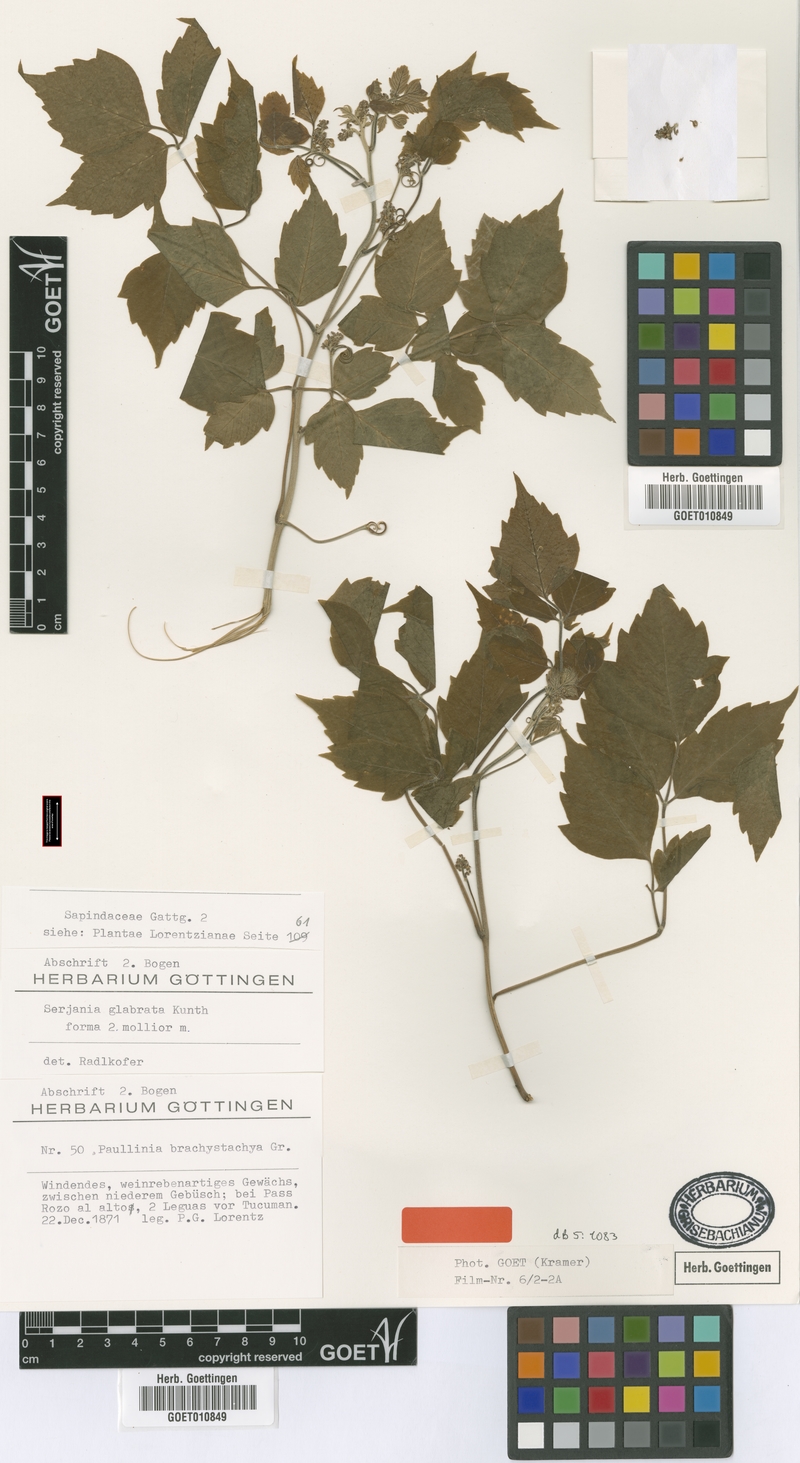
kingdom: Plantae
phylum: Tracheophyta
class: Magnoliopsida
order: Sapindales
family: Sapindaceae
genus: Serjania
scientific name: Serjania glabrata
